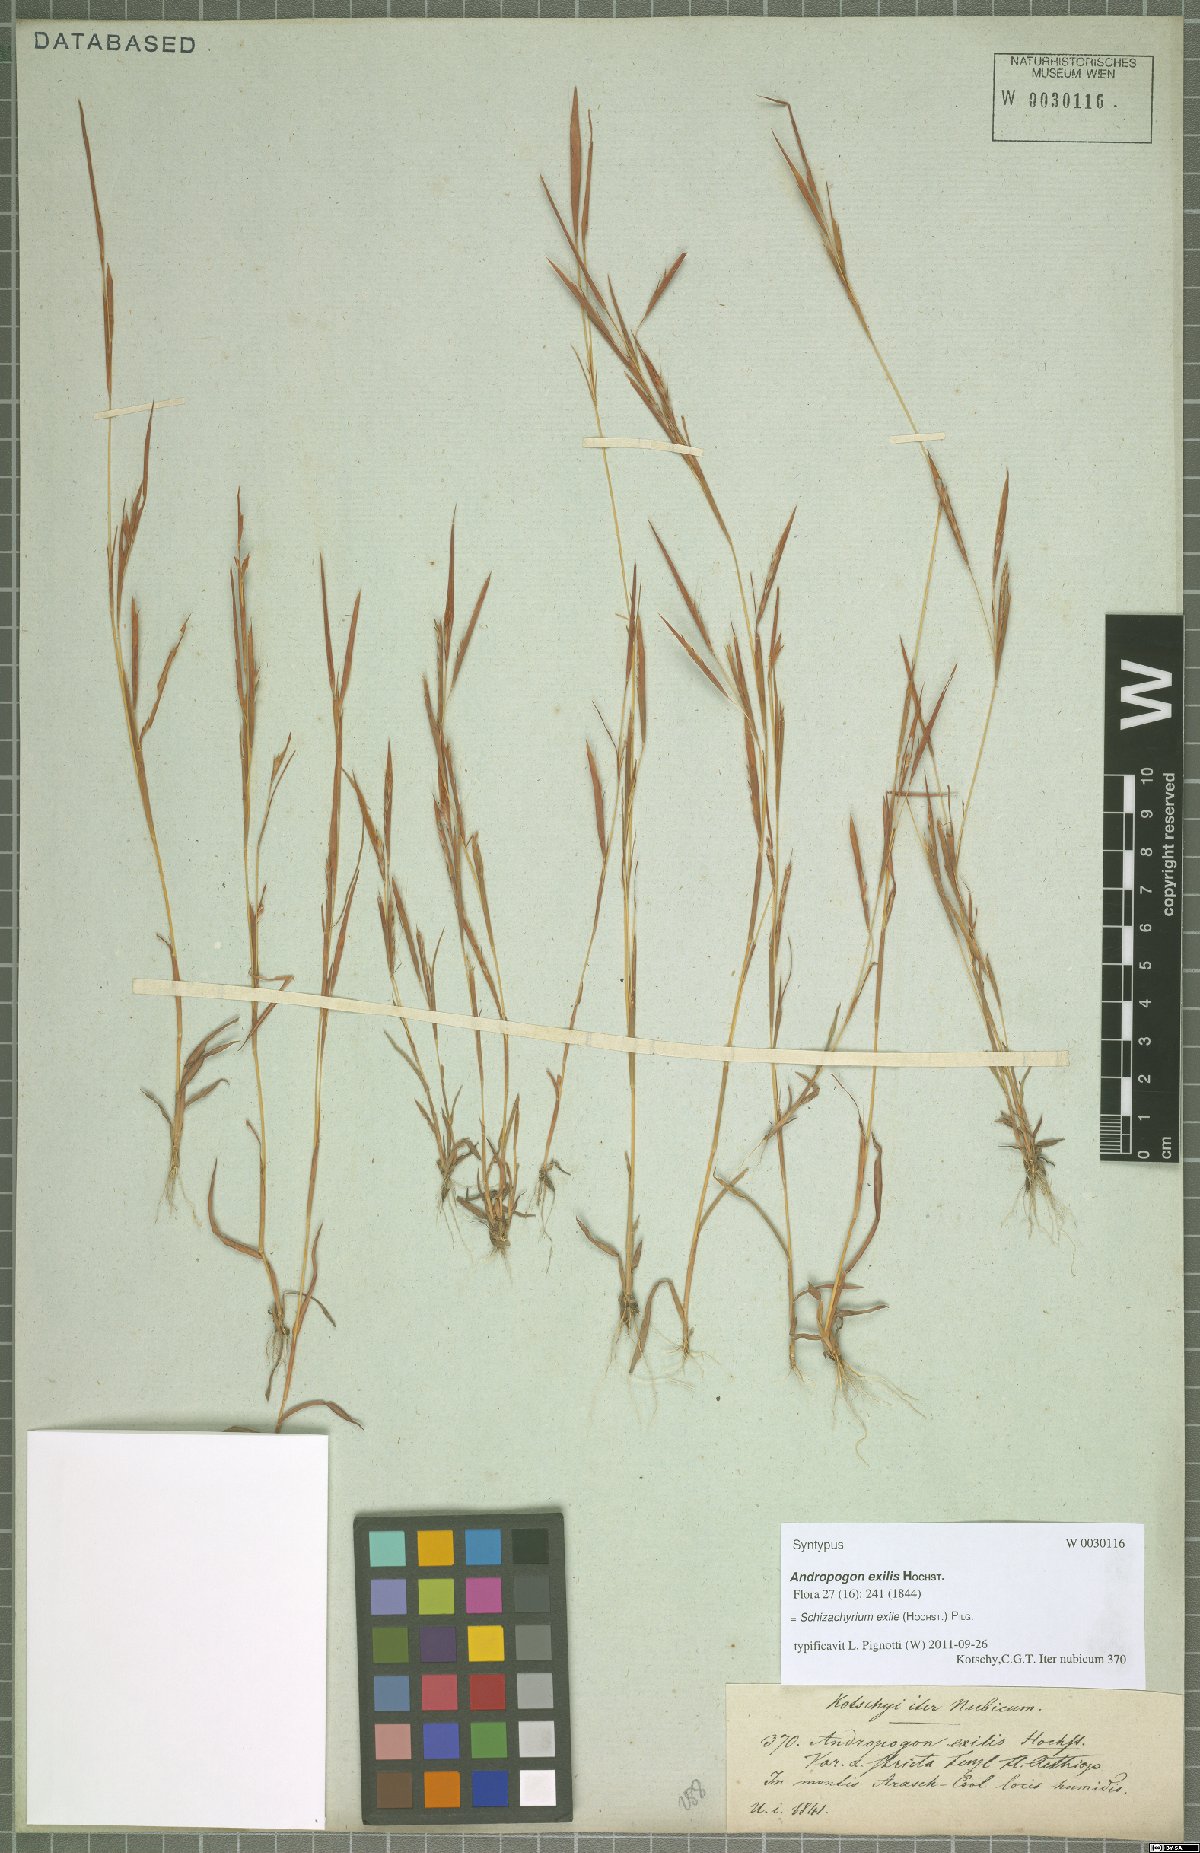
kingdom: Plantae
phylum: Tracheophyta
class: Liliopsida
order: Poales
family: Poaceae
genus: Schizachyrium
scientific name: Schizachyrium exile
